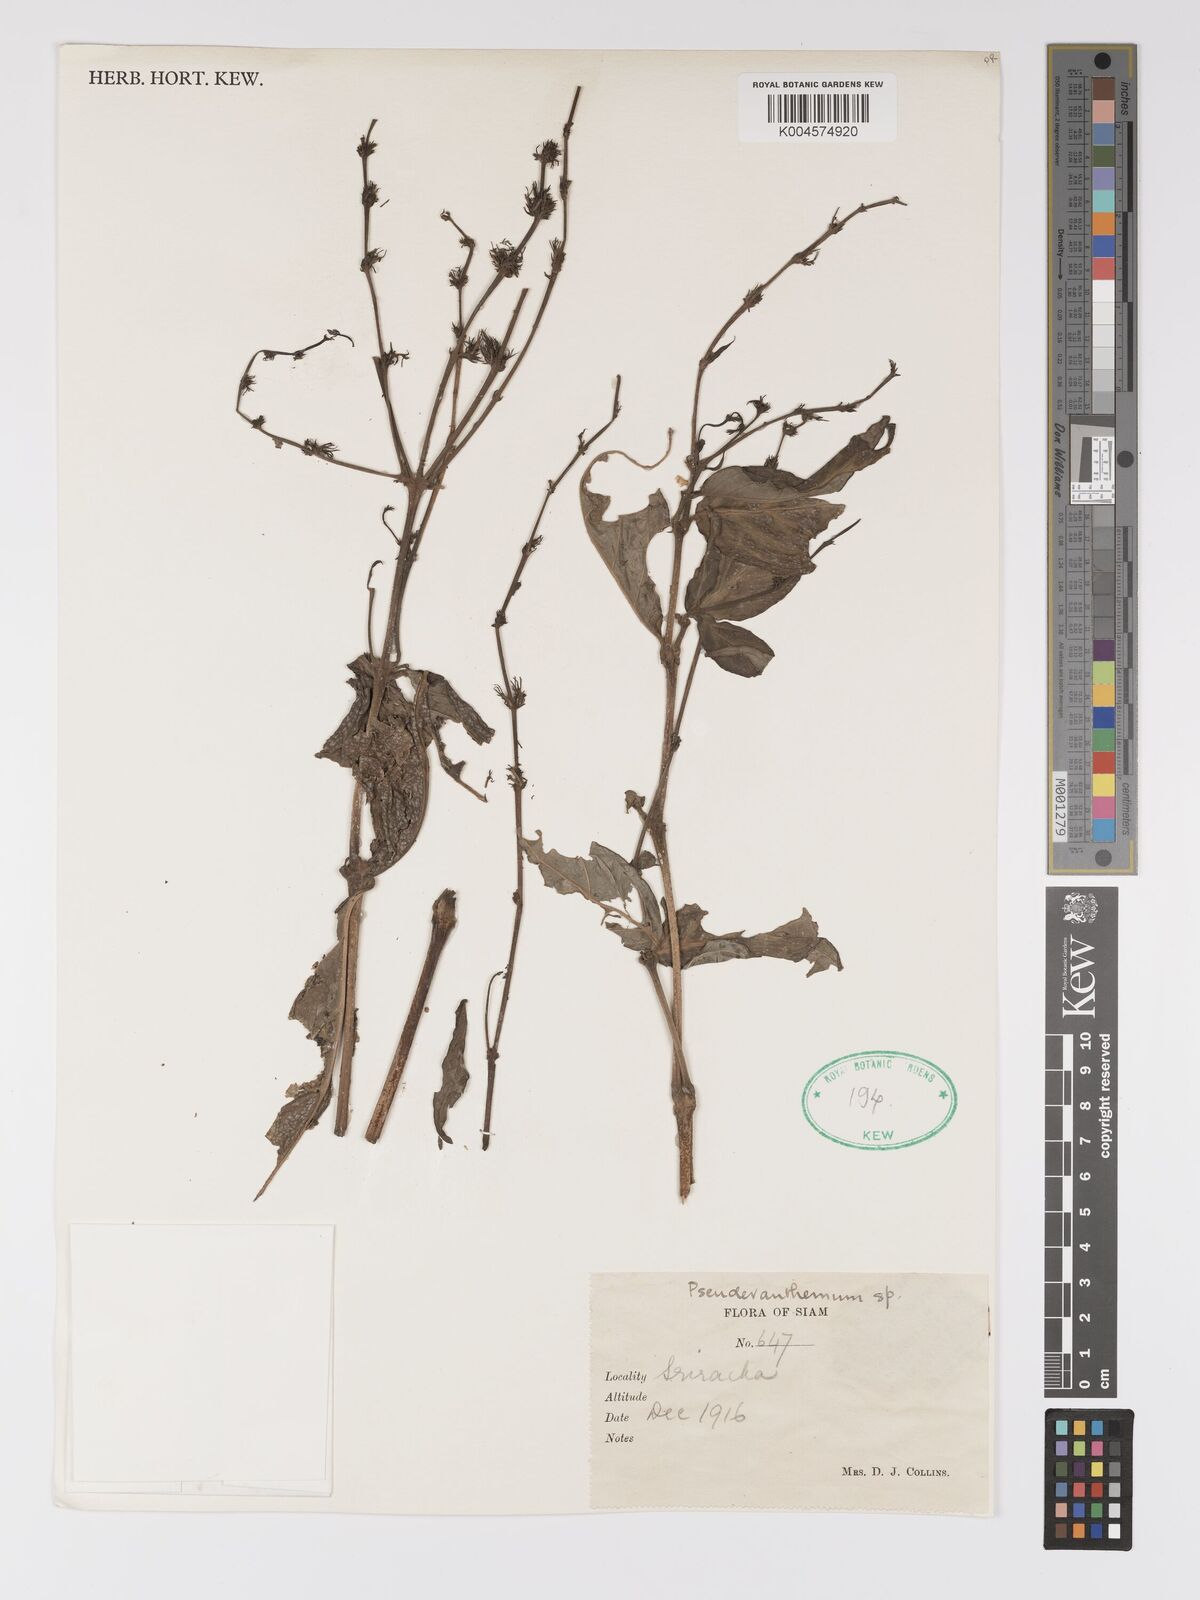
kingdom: Plantae
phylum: Tracheophyta
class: Magnoliopsida
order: Lamiales
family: Acanthaceae
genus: Pseuderanthemum
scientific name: Pseuderanthemum
